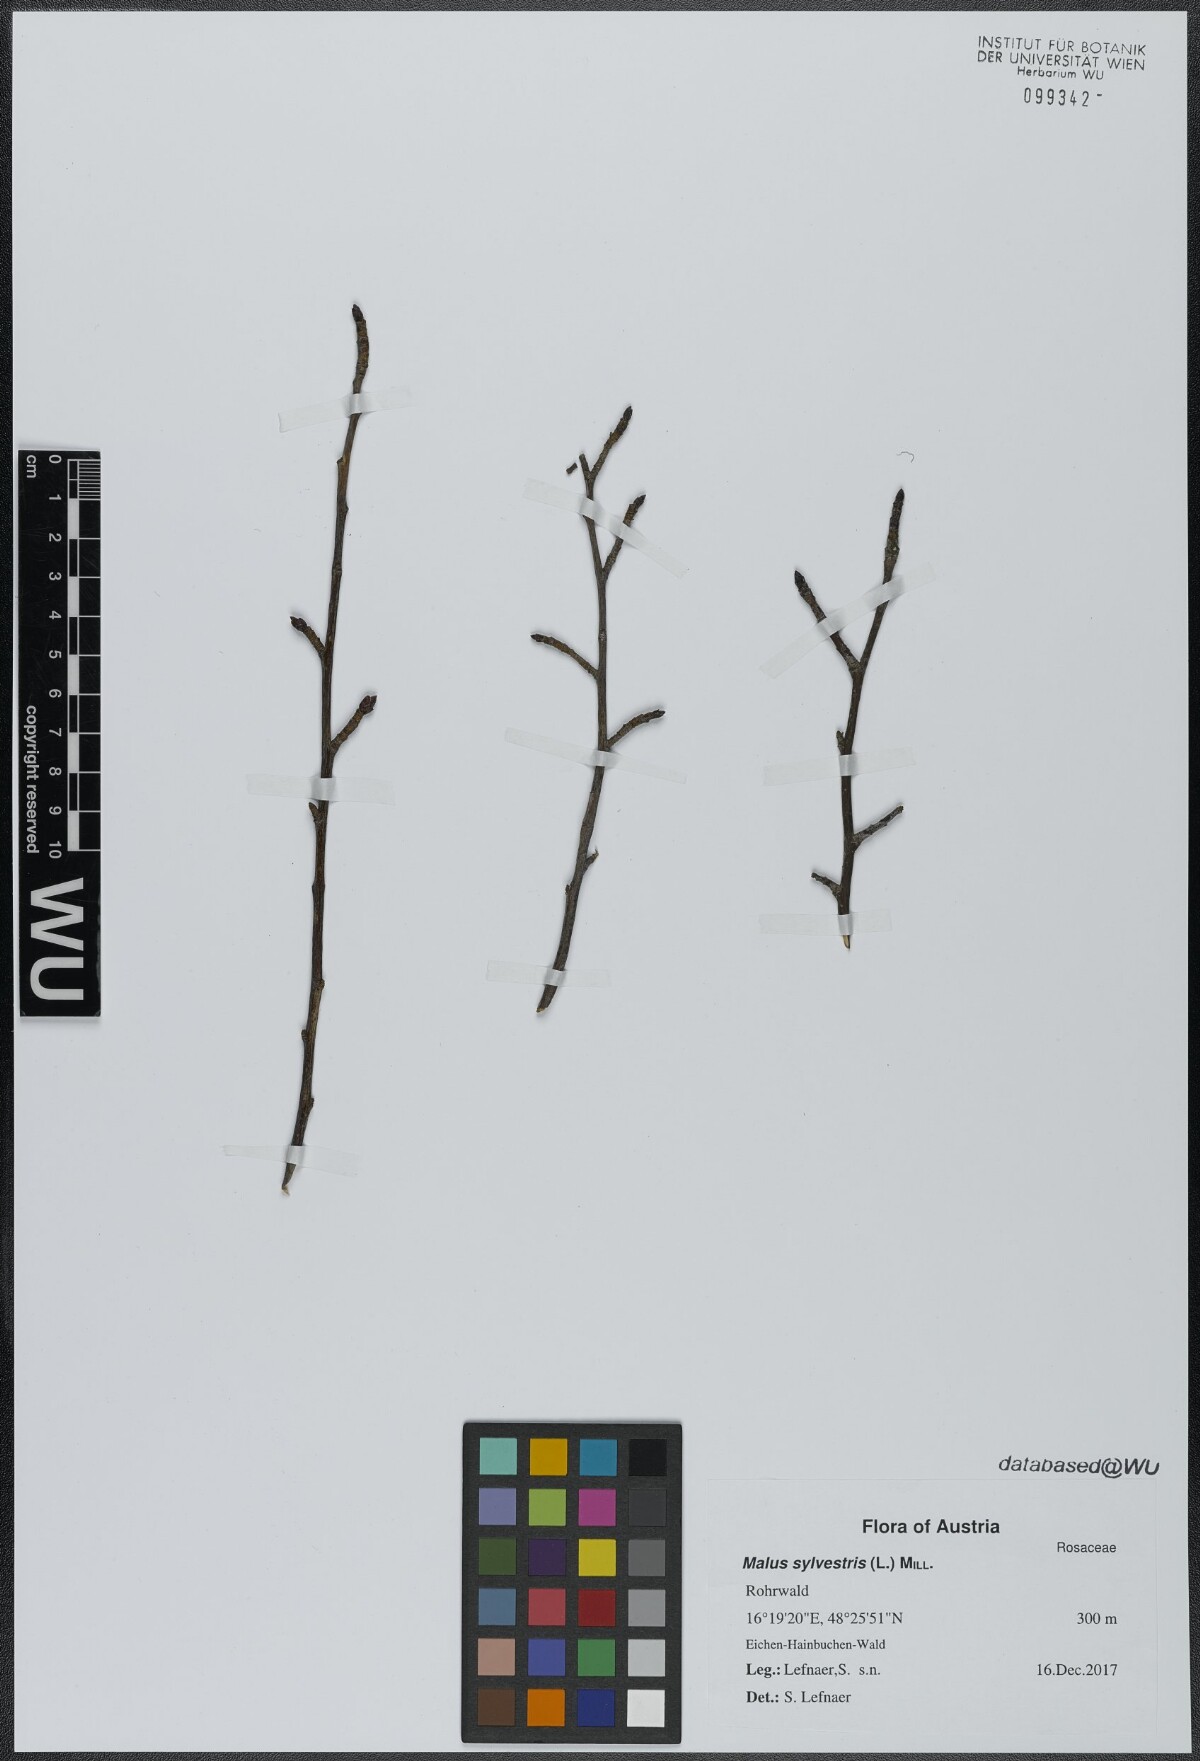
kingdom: Plantae
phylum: Tracheophyta
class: Magnoliopsida
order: Rosales
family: Rosaceae
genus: Malus
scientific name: Malus sylvestris
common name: Crab apple
